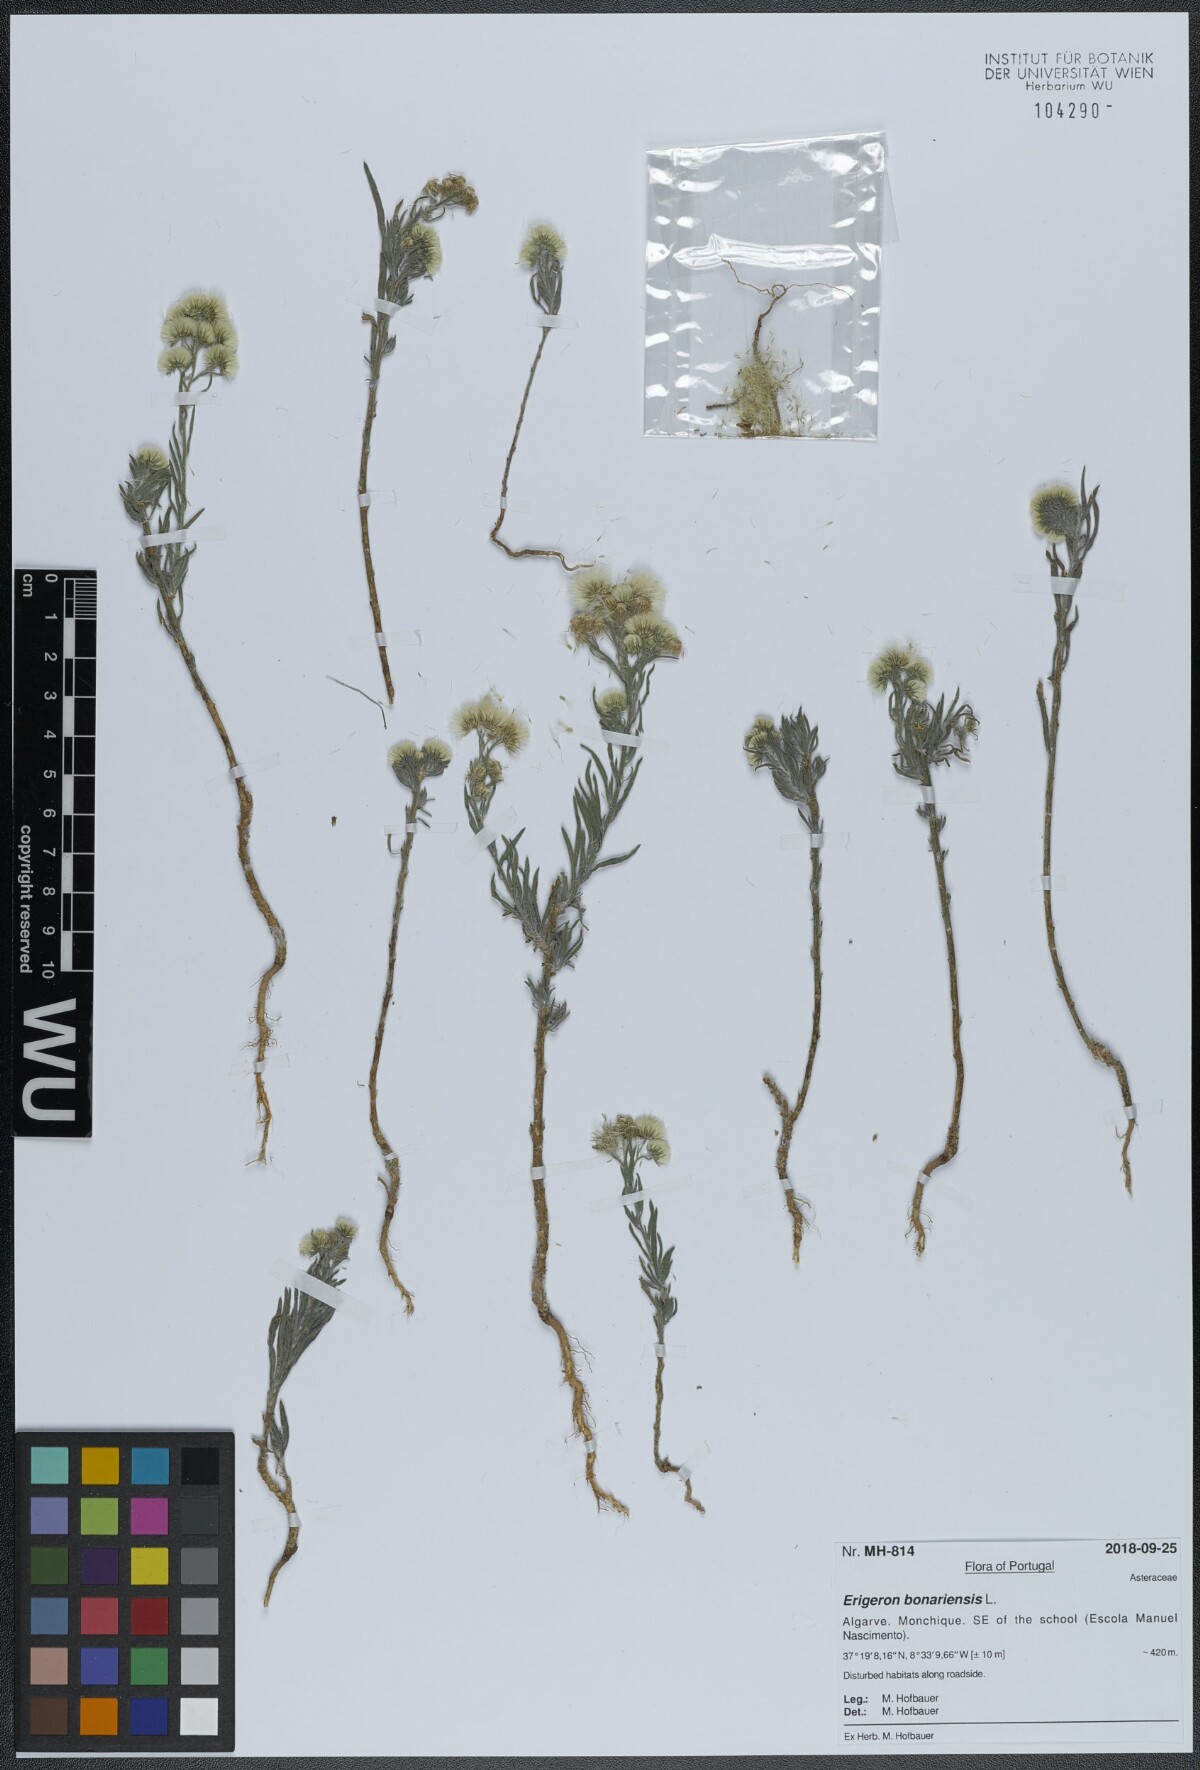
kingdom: Plantae
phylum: Tracheophyta
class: Magnoliopsida
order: Asterales
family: Asteraceae
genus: Erigeron
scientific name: Erigeron bonariensis
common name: Argentine fleabane
